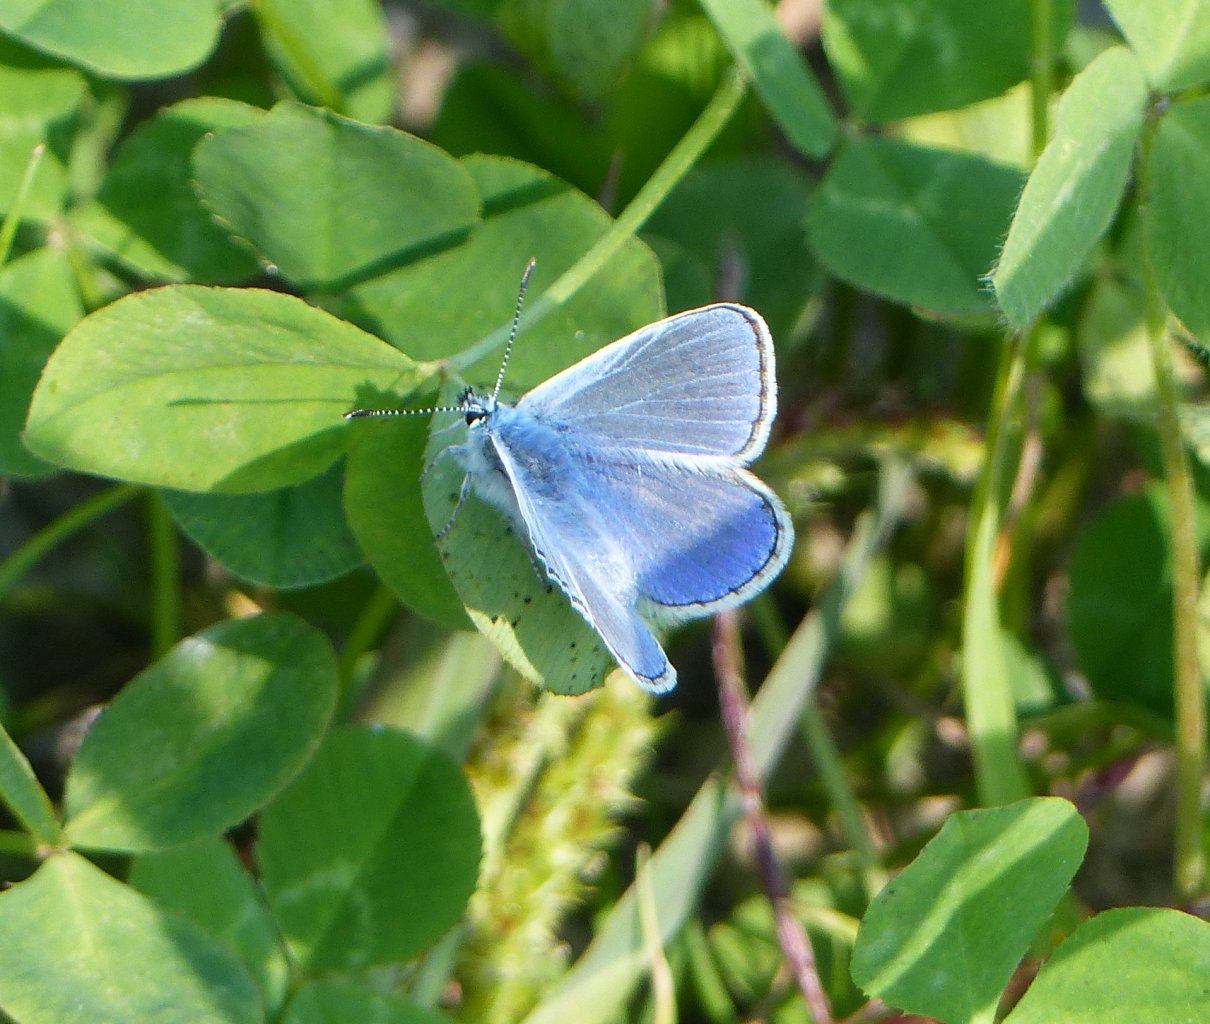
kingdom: Animalia
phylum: Arthropoda
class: Insecta
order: Lepidoptera
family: Lycaenidae
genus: Polyommatus
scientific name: Polyommatus icarus
